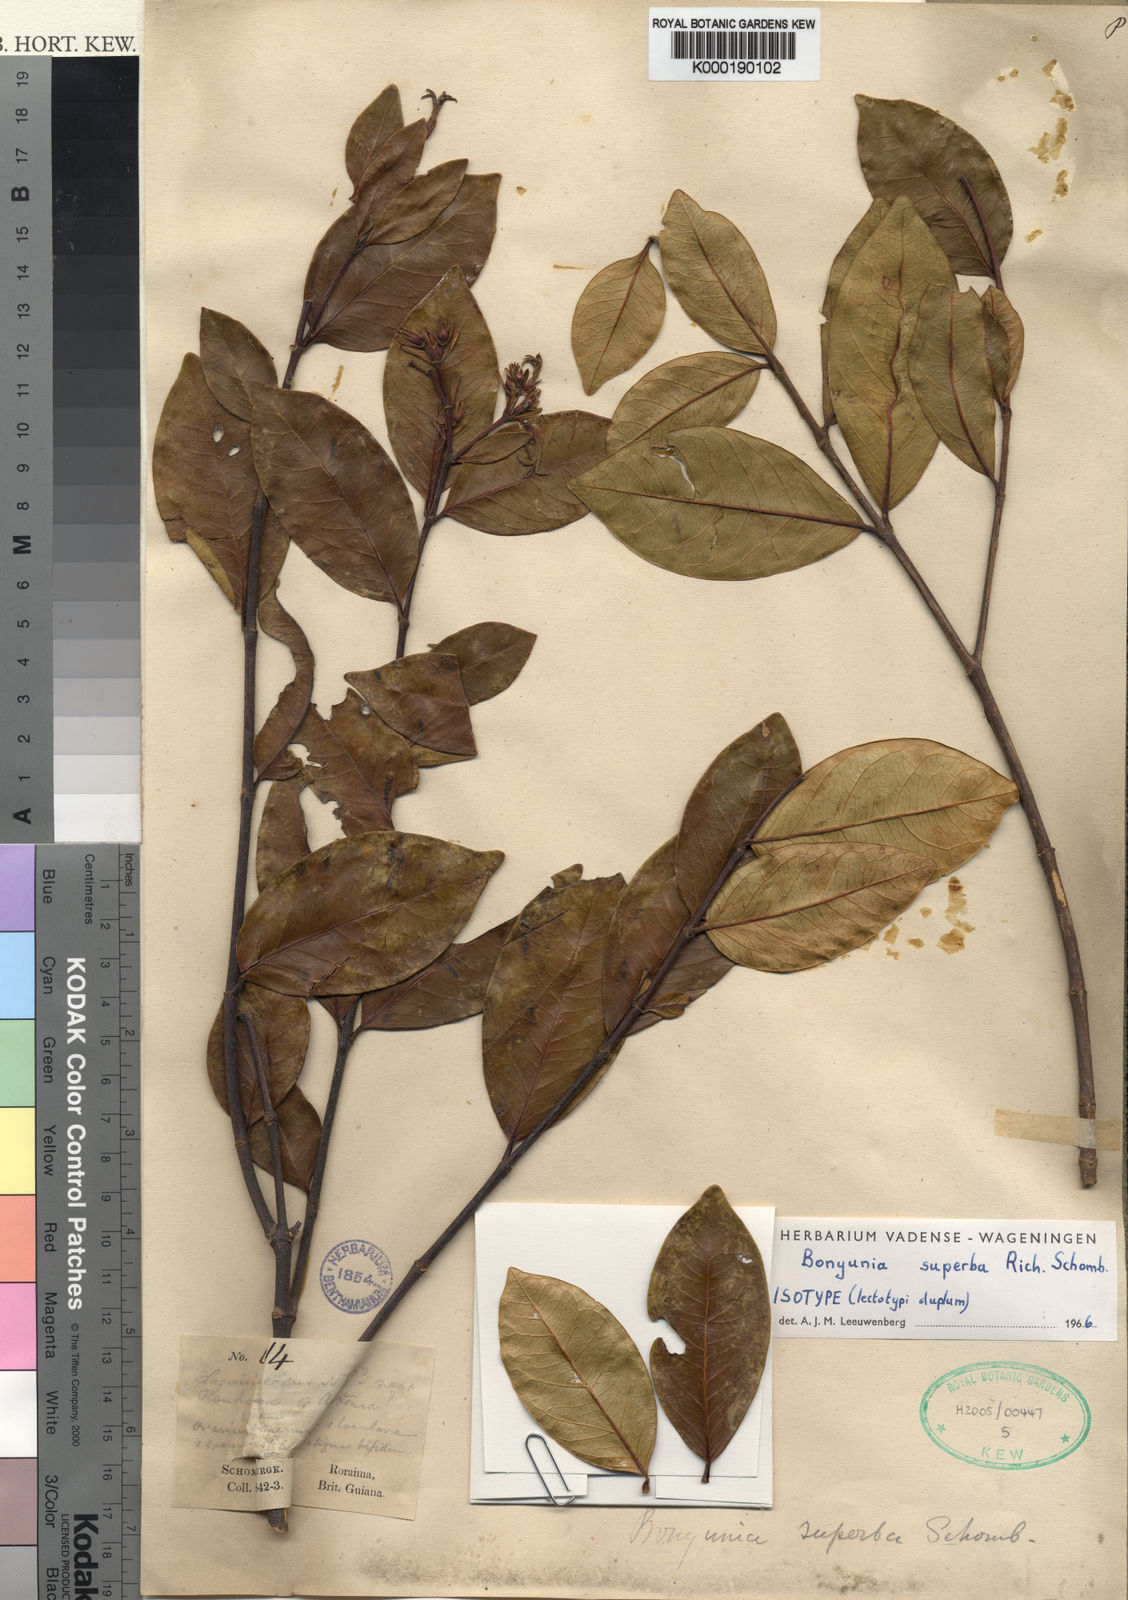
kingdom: Plantae
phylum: Tracheophyta
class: Magnoliopsida
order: Gentianales
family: Loganiaceae
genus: Bonyunia
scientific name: Bonyunia superba
